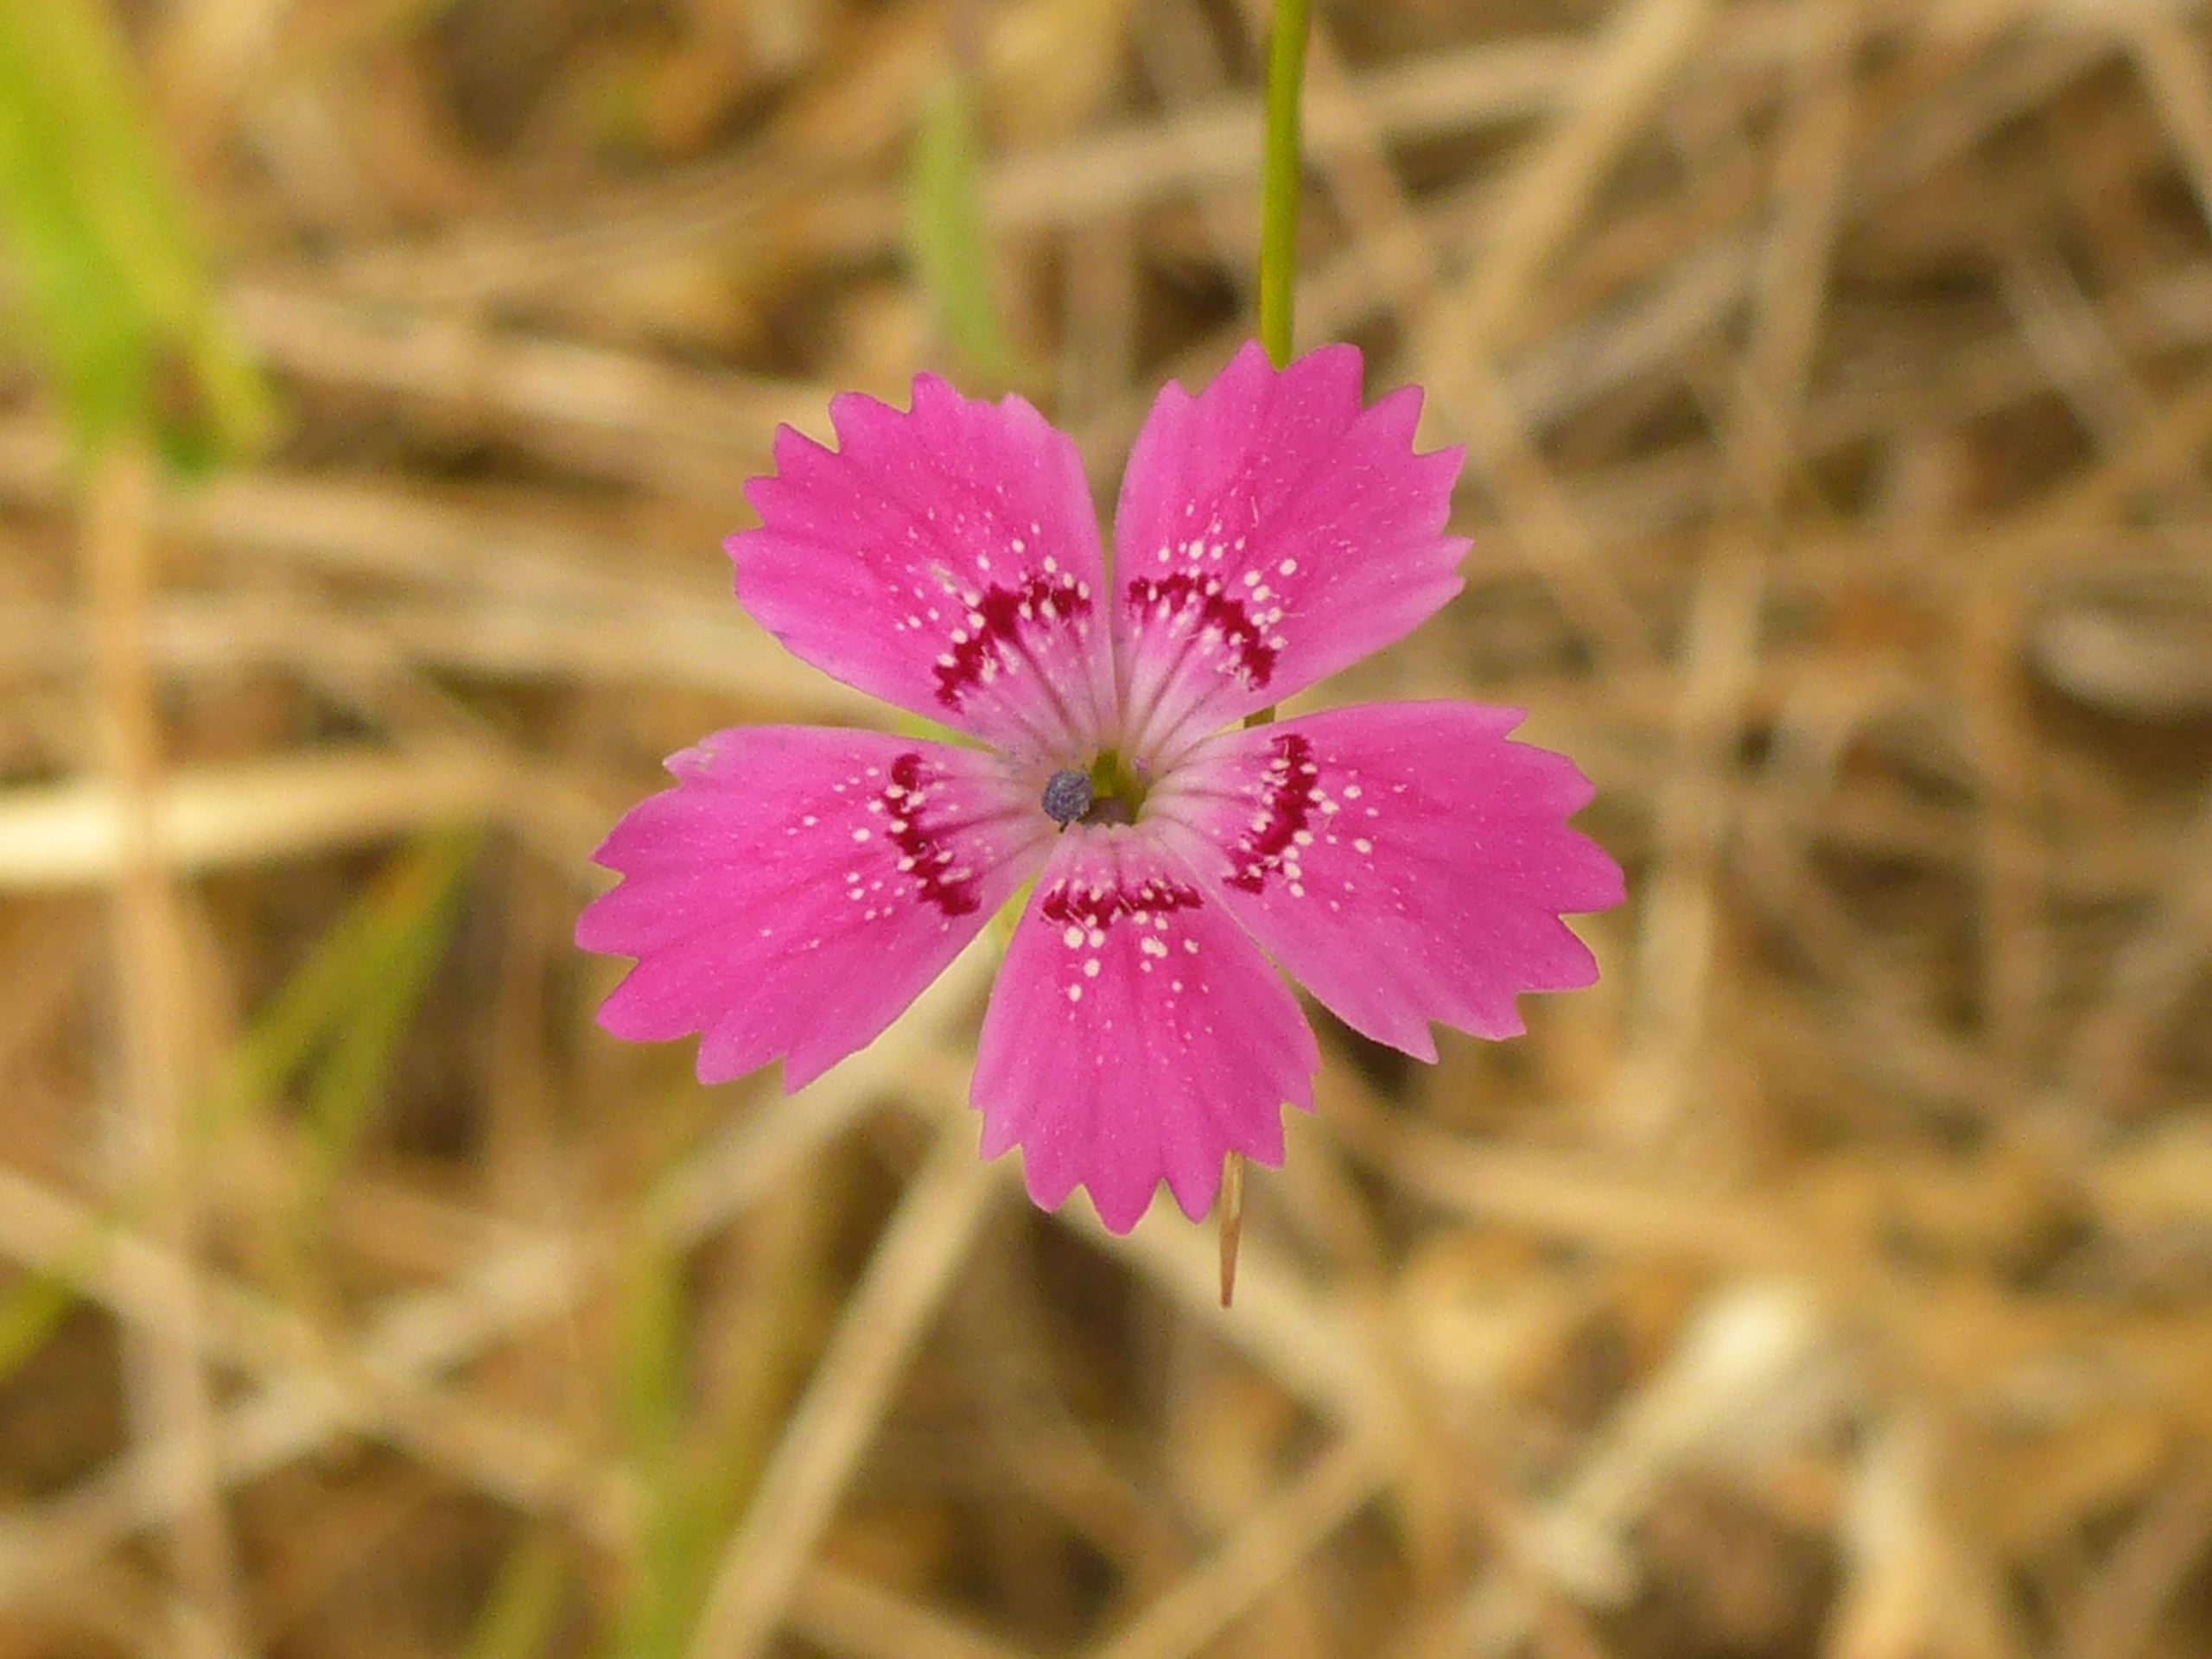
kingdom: Plantae
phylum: Tracheophyta
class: Magnoliopsida
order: Caryophyllales
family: Caryophyllaceae
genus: Dianthus
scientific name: Dianthus deltoides
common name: Bakke-nellike
